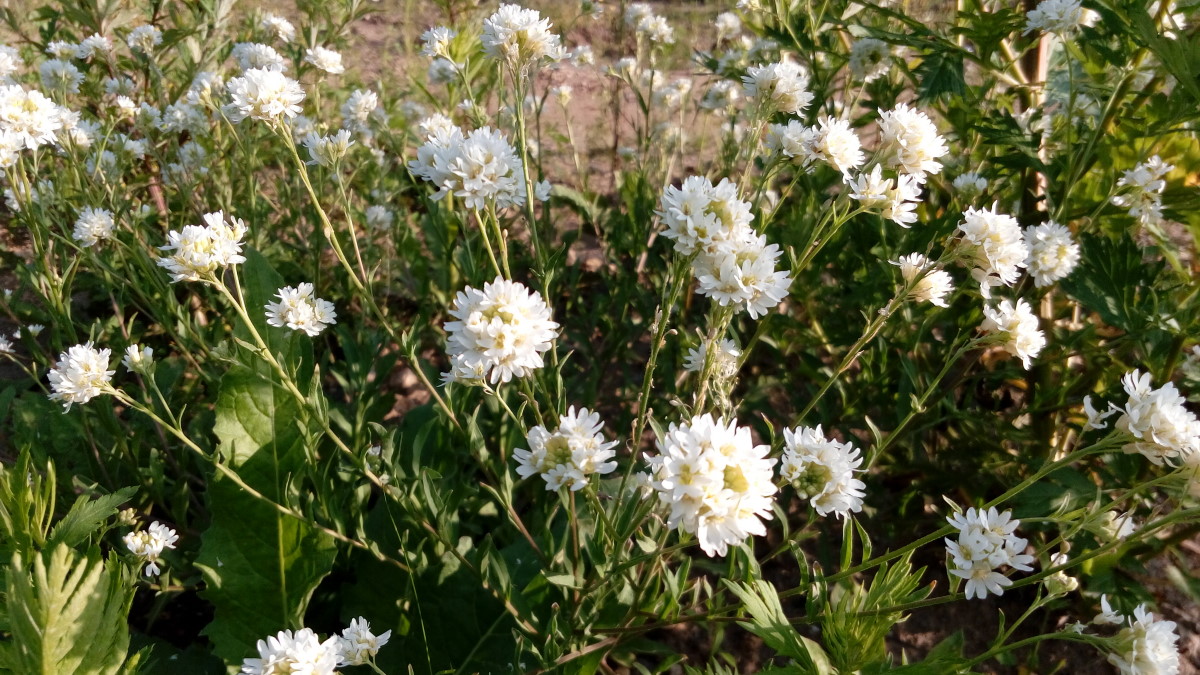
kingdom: Plantae
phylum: Tracheophyta
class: Magnoliopsida
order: Brassicales
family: Brassicaceae
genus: Berteroa
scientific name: Berteroa incana
